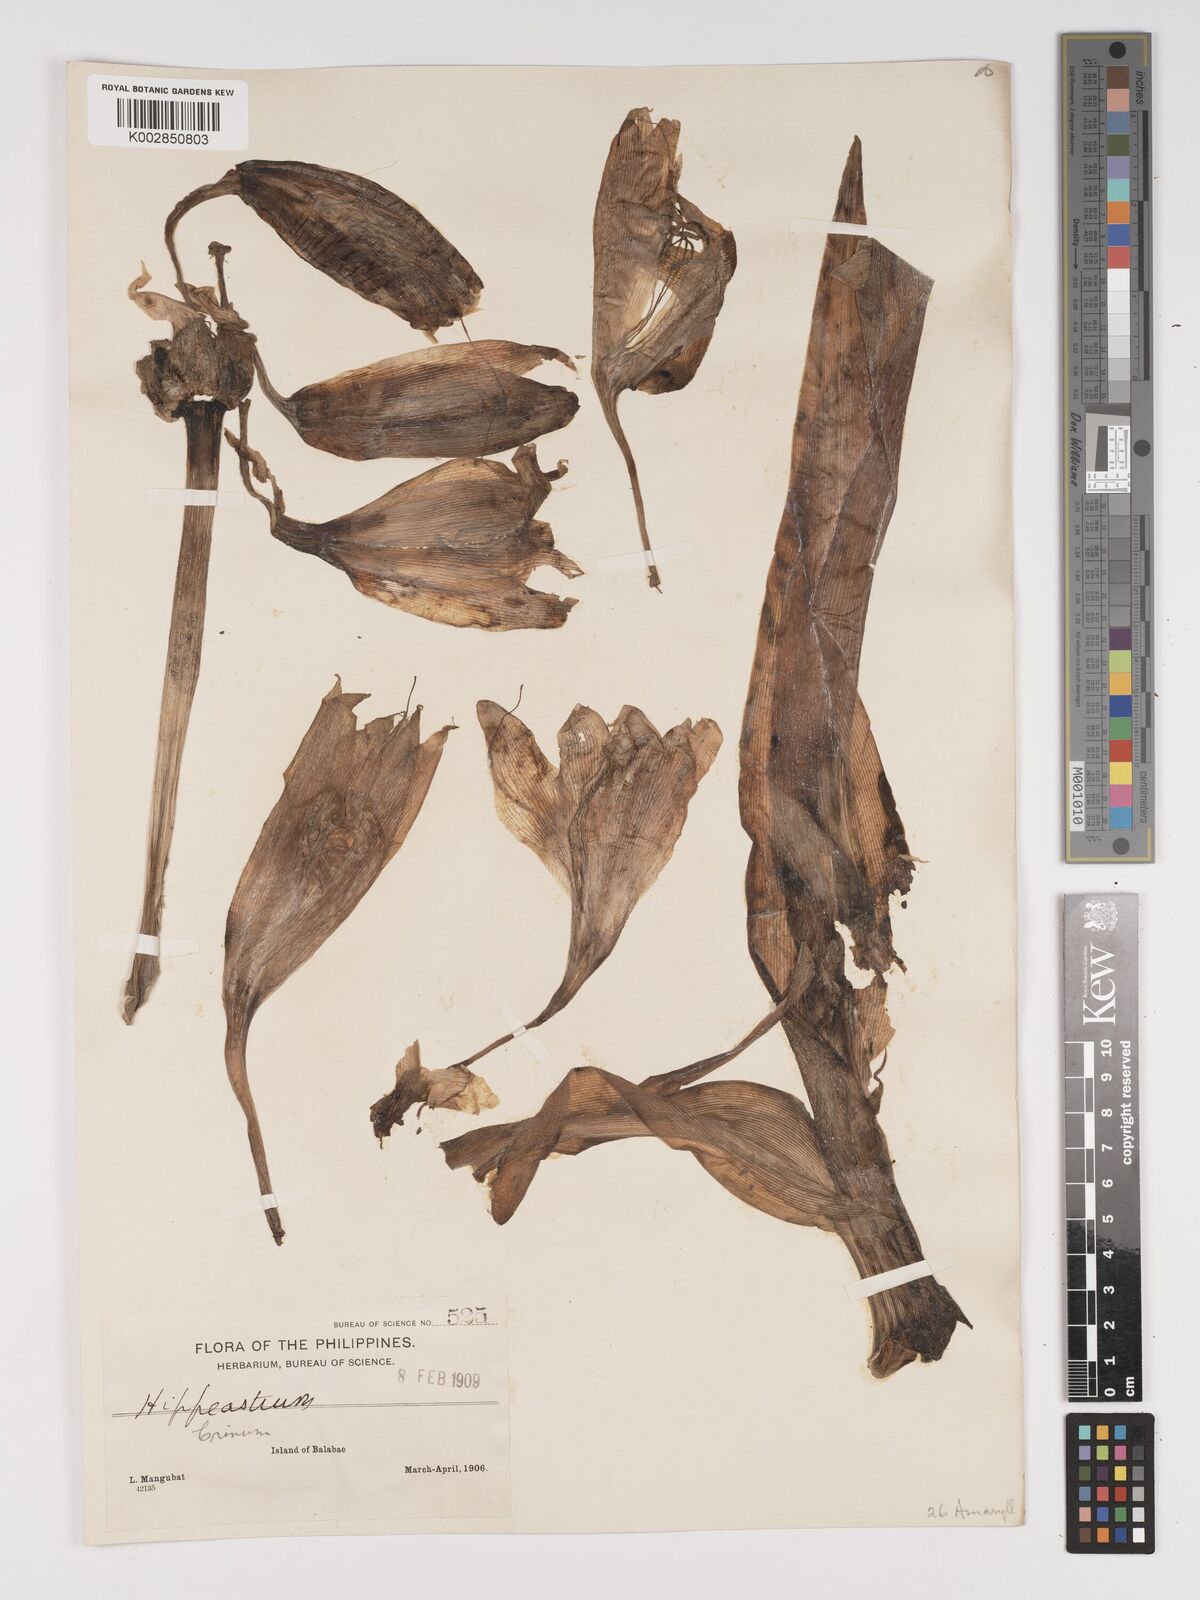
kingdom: Plantae
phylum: Tracheophyta
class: Liliopsida
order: Asparagales
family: Amaryllidaceae
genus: Crinum
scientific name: Crinum
